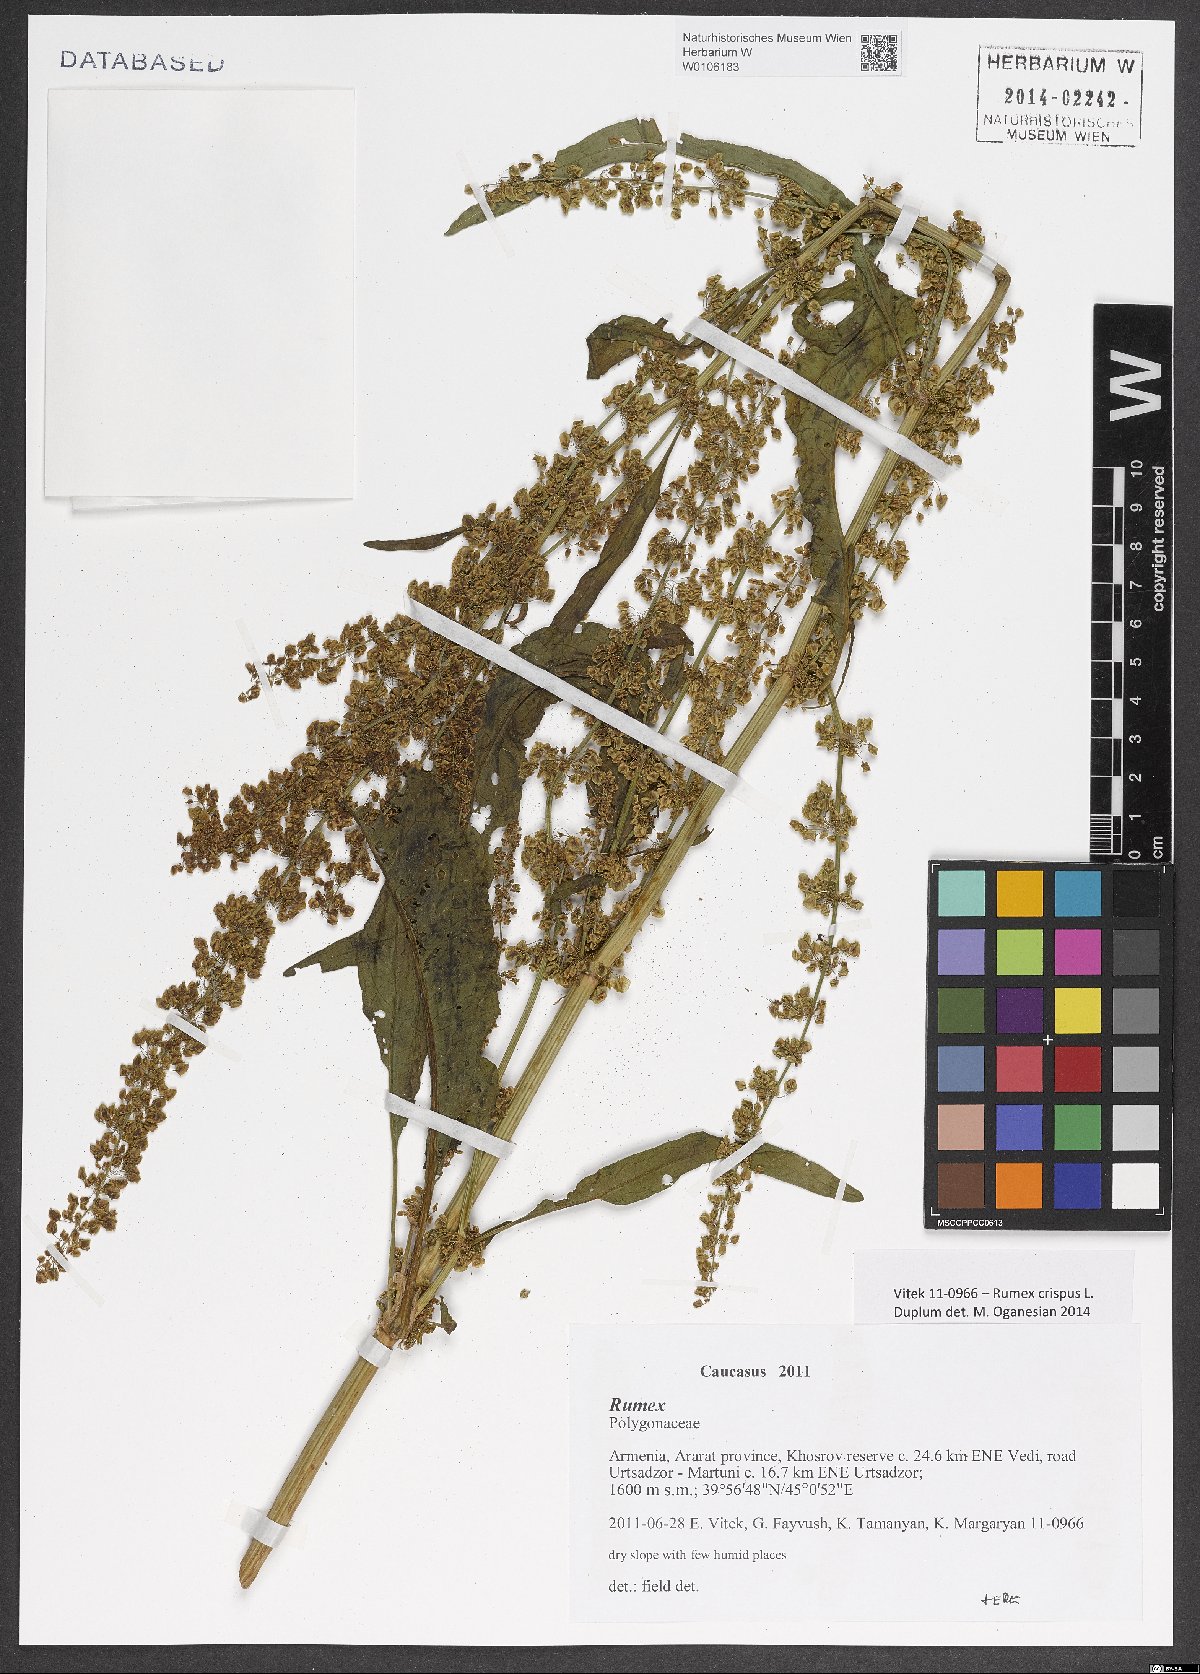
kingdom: Plantae
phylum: Tracheophyta
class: Magnoliopsida
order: Caryophyllales
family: Polygonaceae
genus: Rumex
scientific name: Rumex crispus
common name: Curled dock
